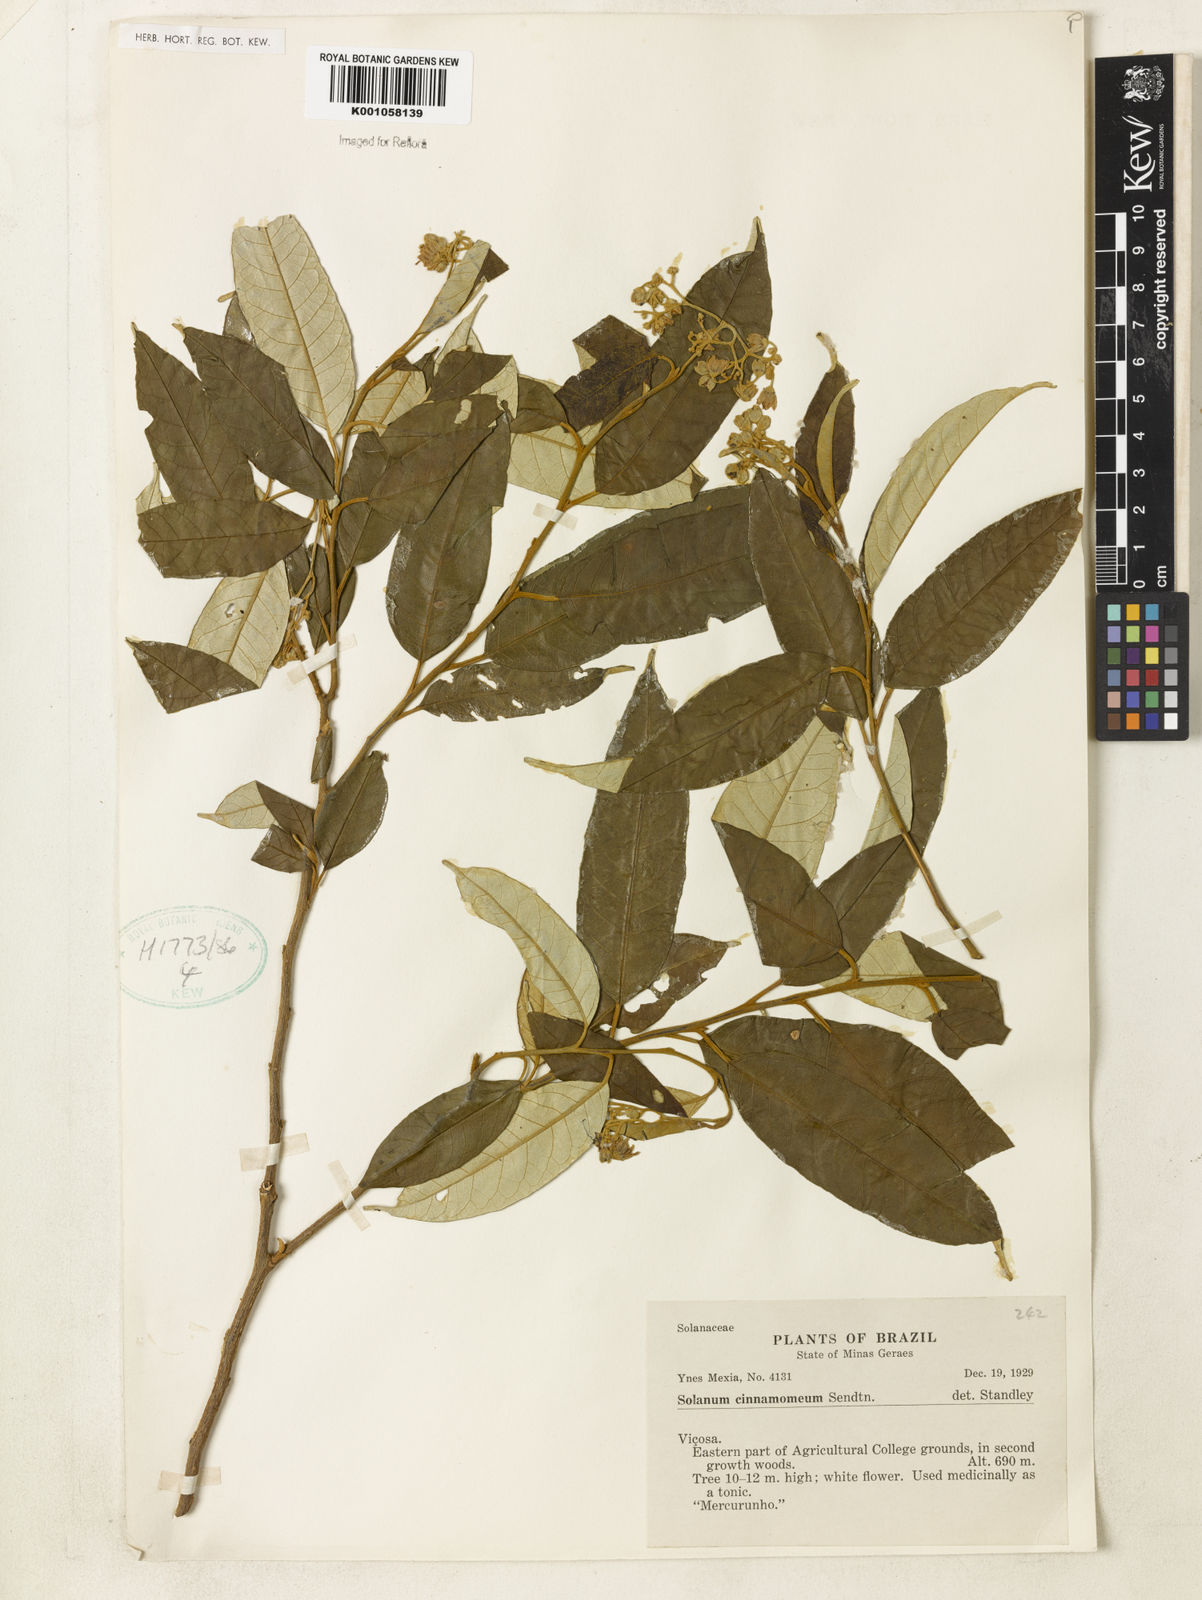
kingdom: Plantae
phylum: Tracheophyta
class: Magnoliopsida
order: Solanales
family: Solanaceae
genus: Solanum
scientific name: Solanum cinnamomeum
